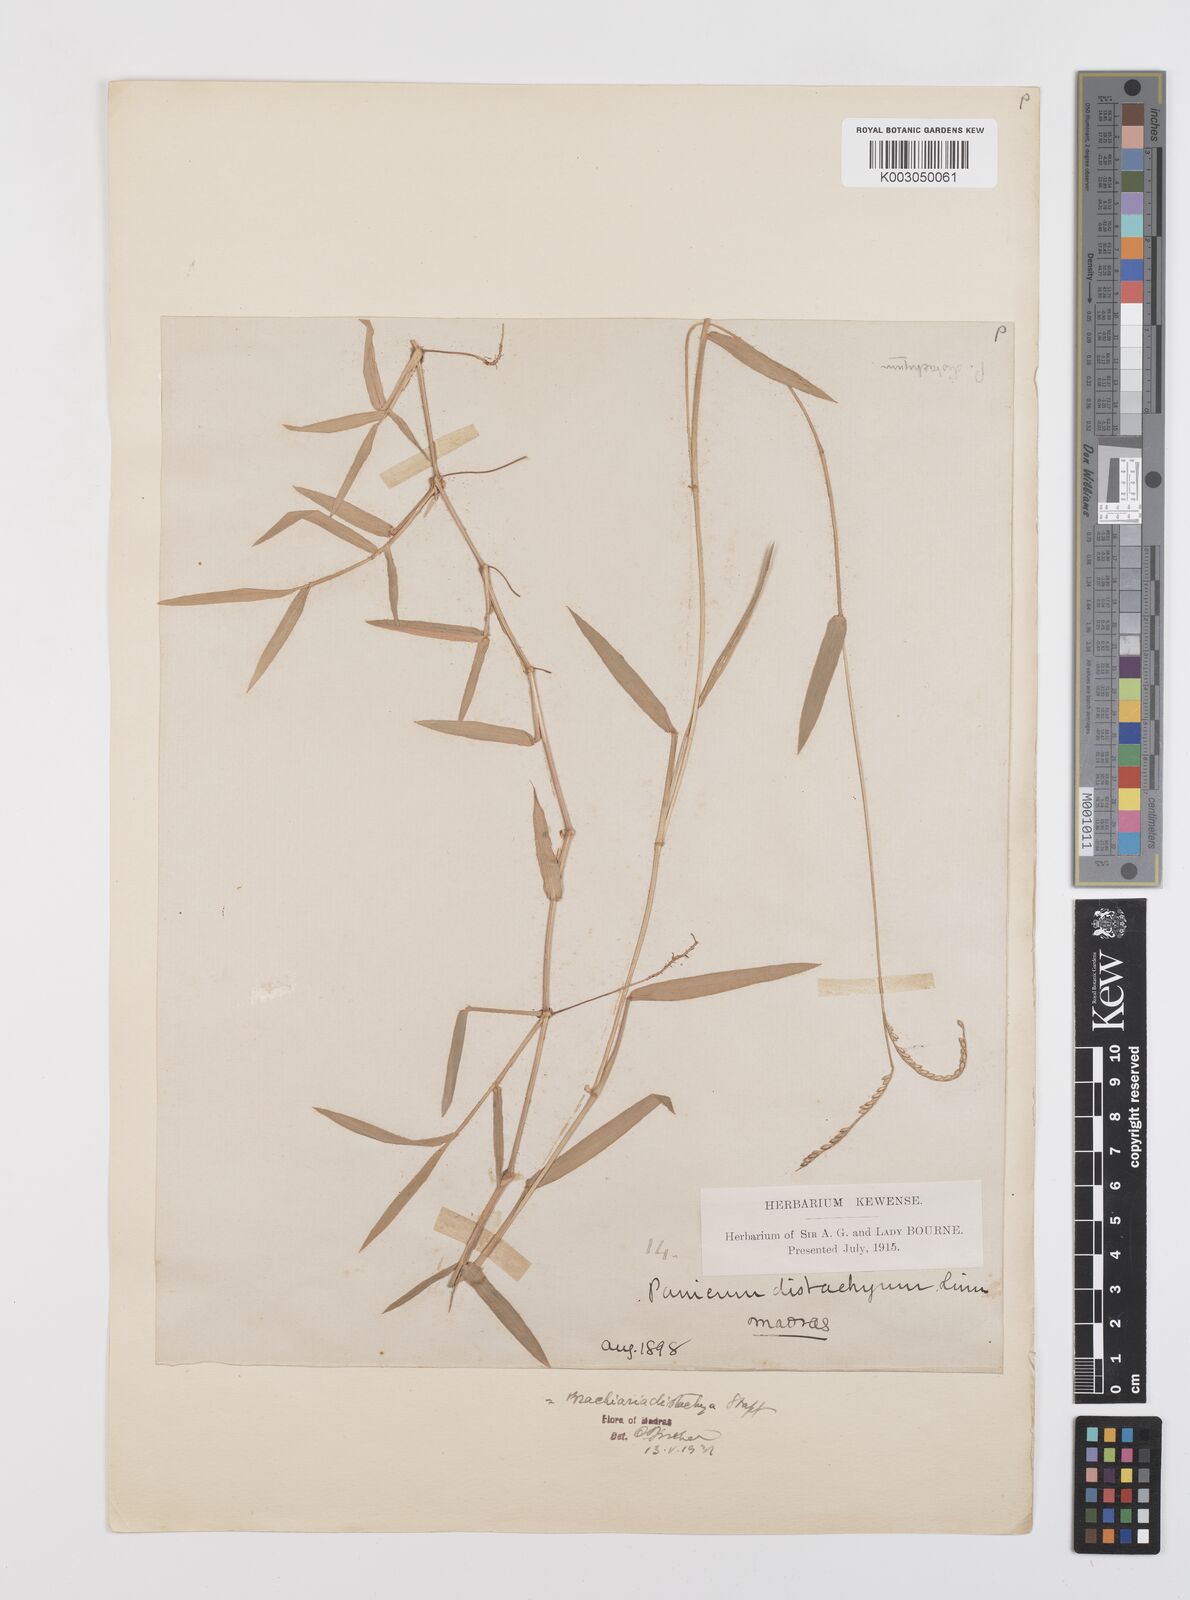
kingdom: Plantae
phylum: Tracheophyta
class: Liliopsida
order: Poales
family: Poaceae
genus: Urochloa
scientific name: Urochloa distachyos
